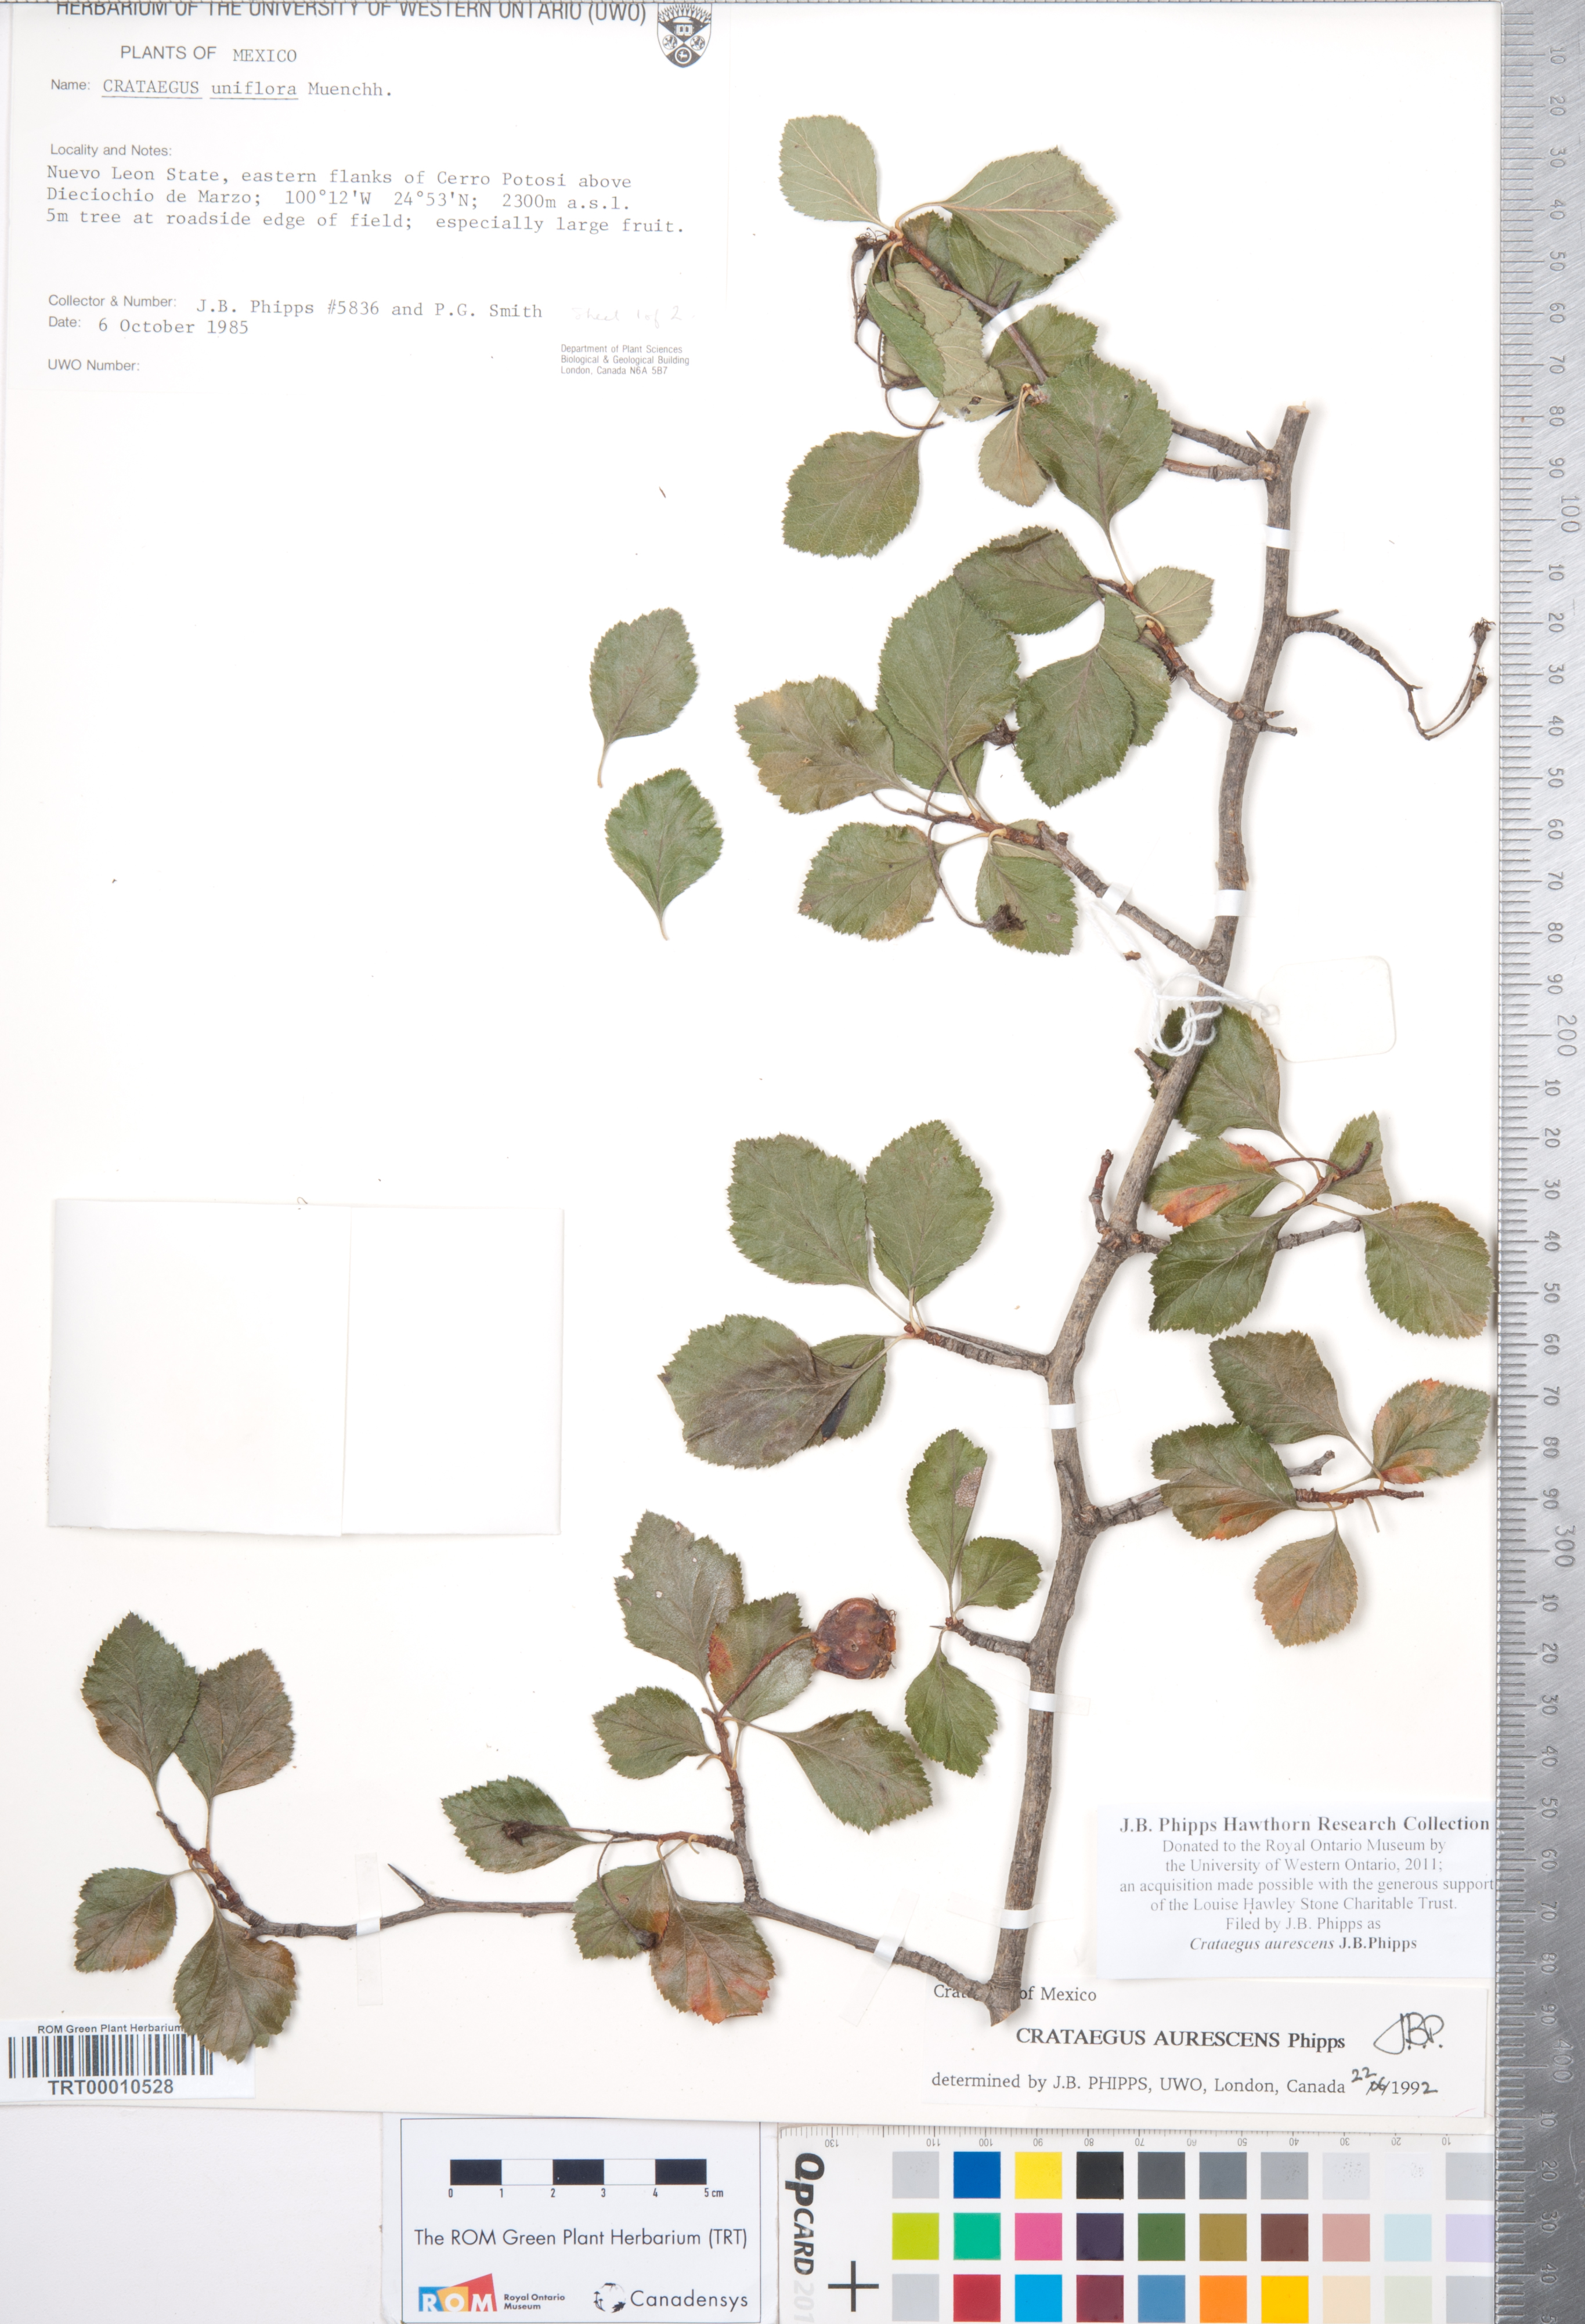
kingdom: Plantae
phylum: Tracheophyta
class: Magnoliopsida
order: Rosales
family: Rosaceae
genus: Crataegus
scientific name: Crataegus aurescens
